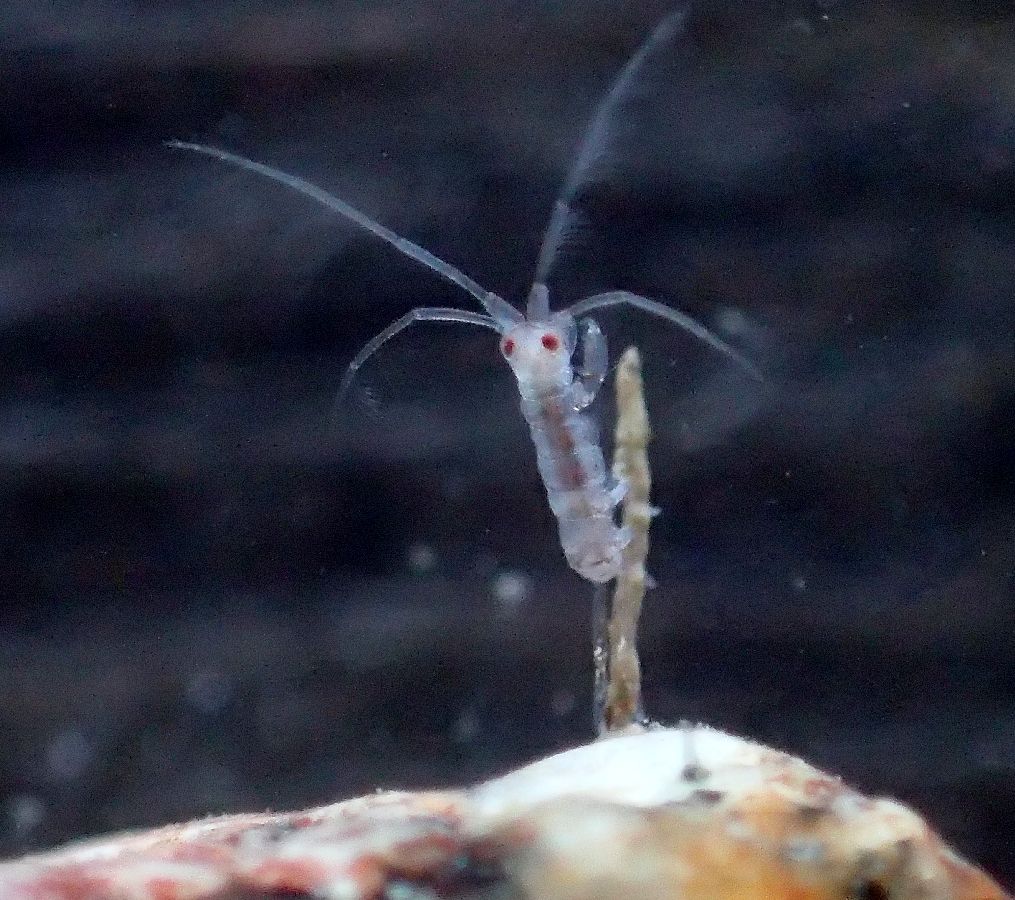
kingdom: Animalia
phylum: Arthropoda
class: Malacostraca
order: Amphipoda
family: Dulichiidae
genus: Dyopedos
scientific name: Dyopedos bispinis
